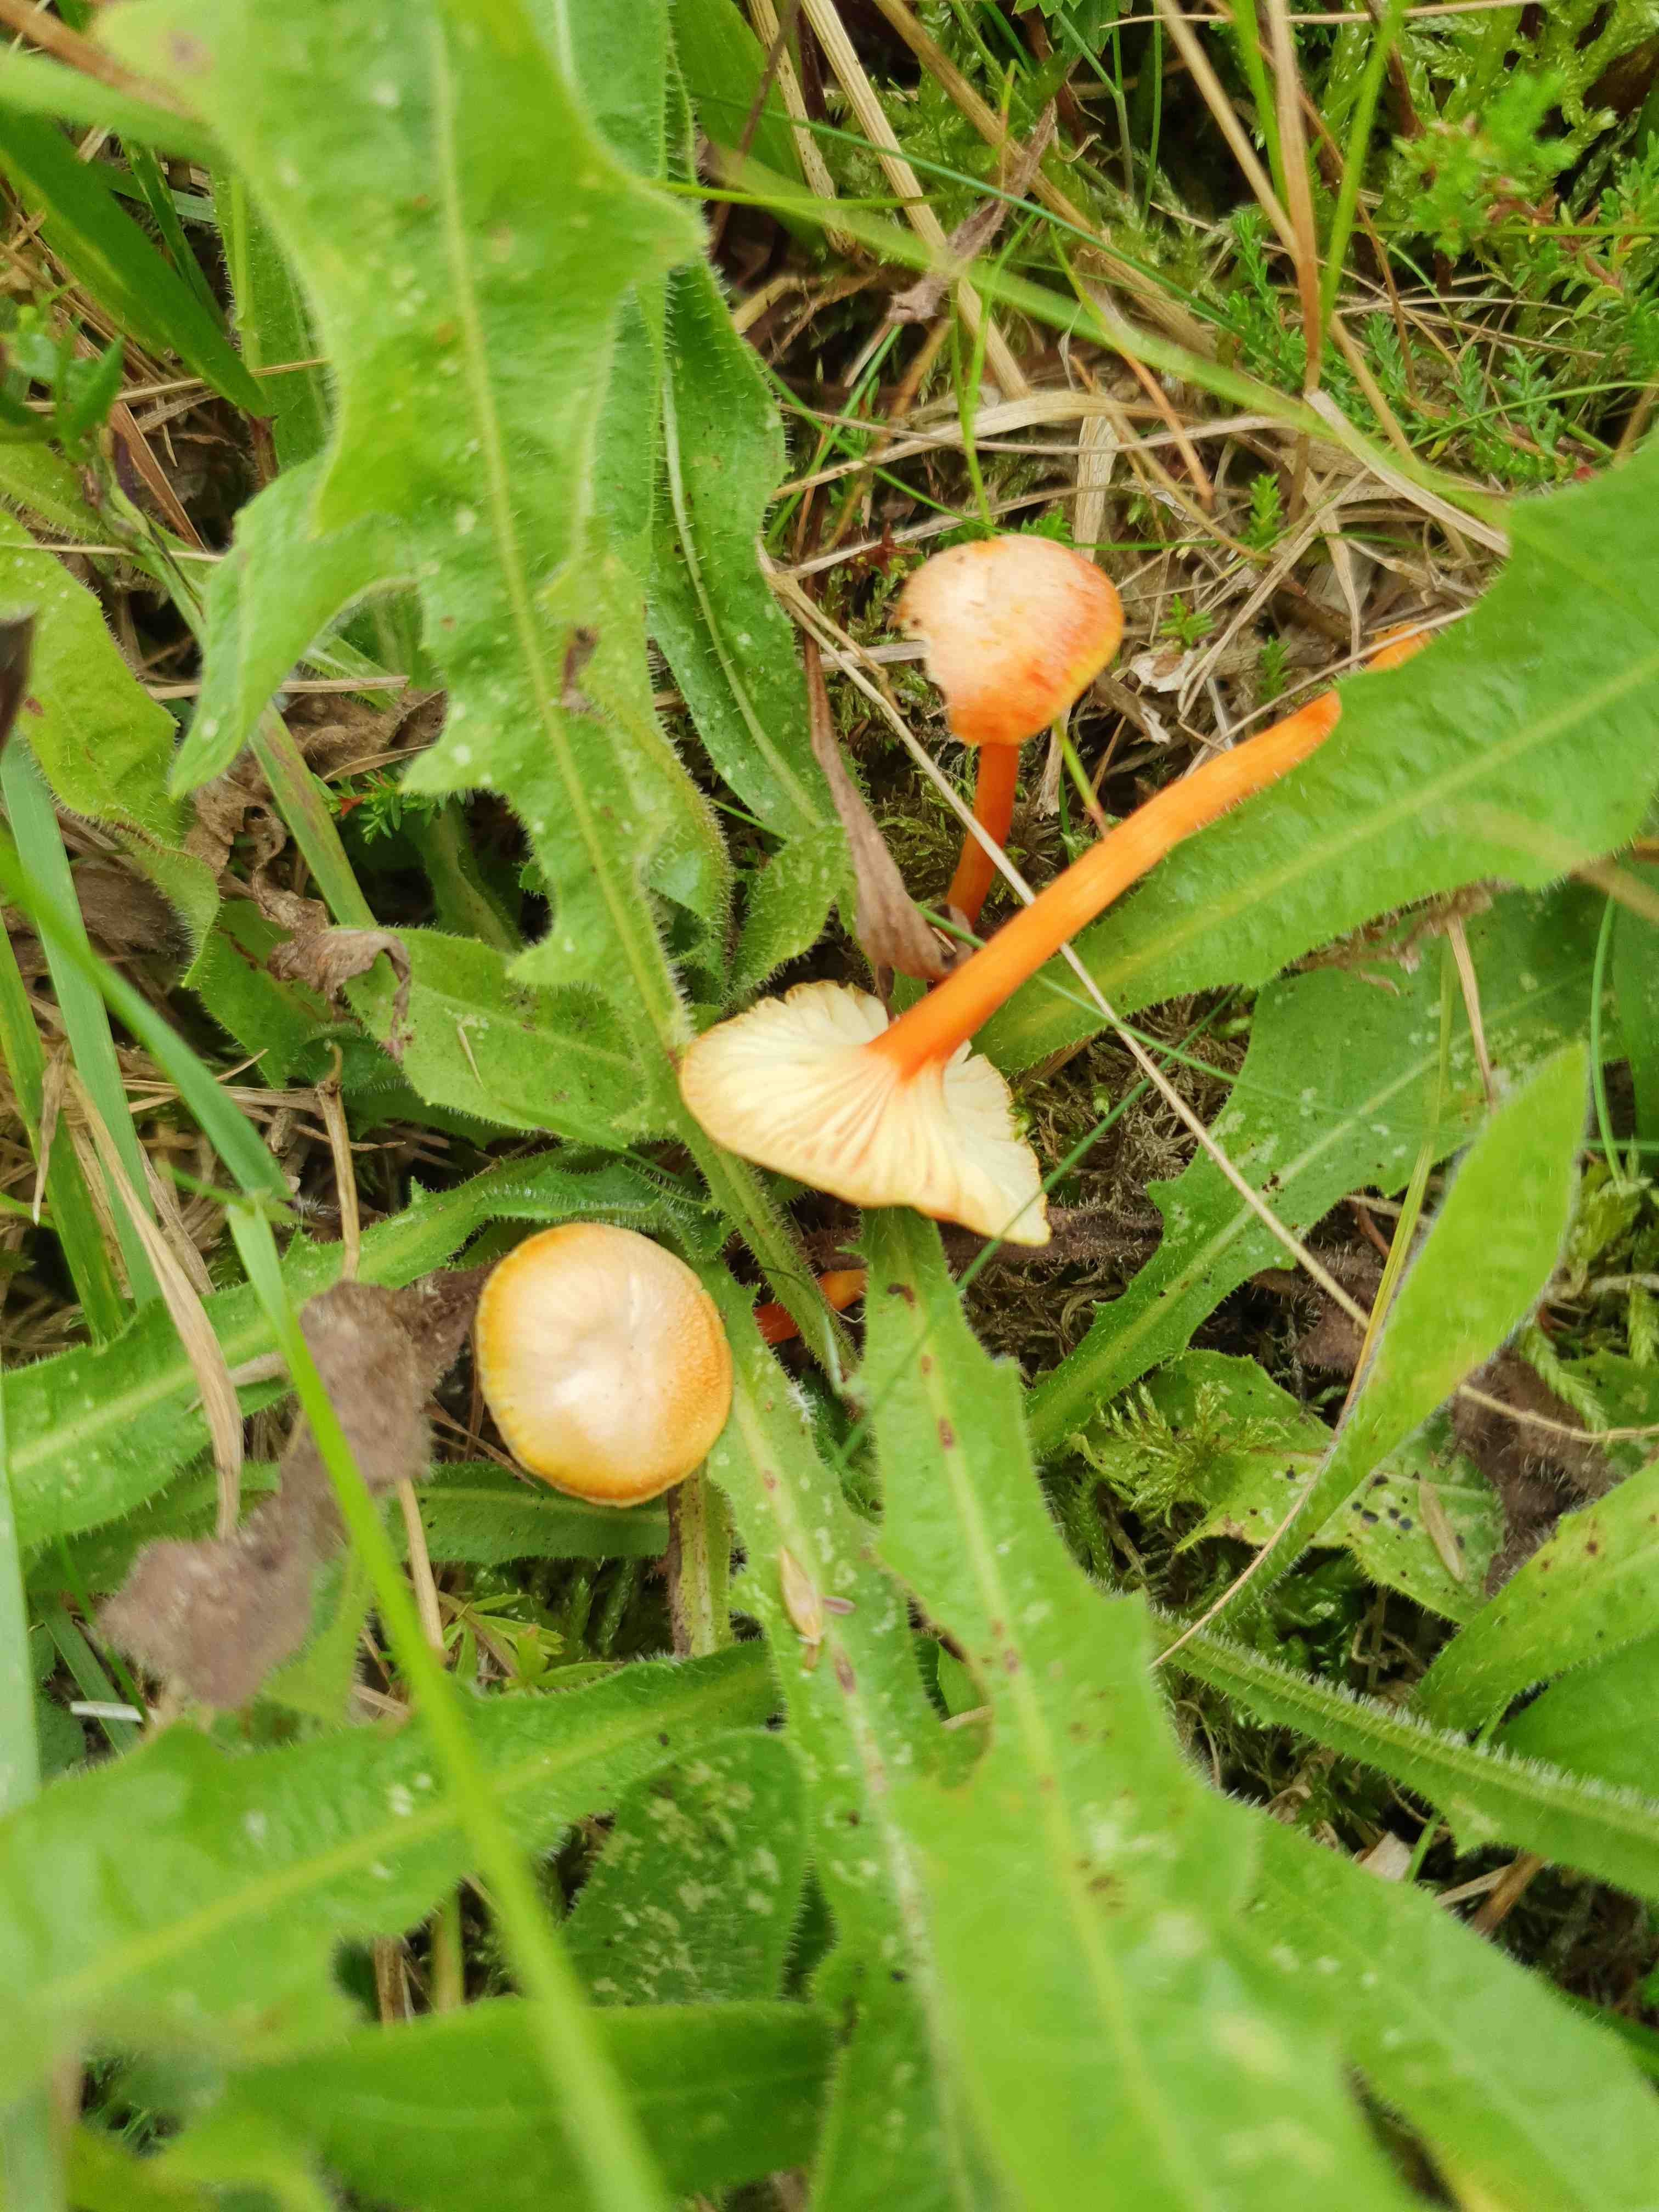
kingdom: Fungi
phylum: Basidiomycota
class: Agaricomycetes
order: Agaricales
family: Hygrophoraceae
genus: Hygrocybe
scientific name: Hygrocybe cantharellus
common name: kantarel-vokshat
